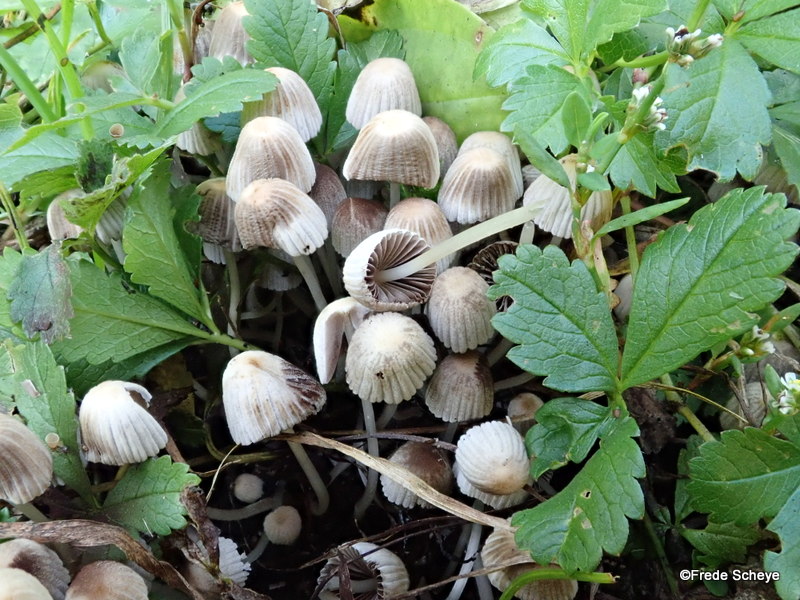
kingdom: Fungi
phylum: Basidiomycota
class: Agaricomycetes
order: Agaricales
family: Psathyrellaceae
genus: Coprinellus
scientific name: Coprinellus disseminatus
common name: bredsået blækhat
